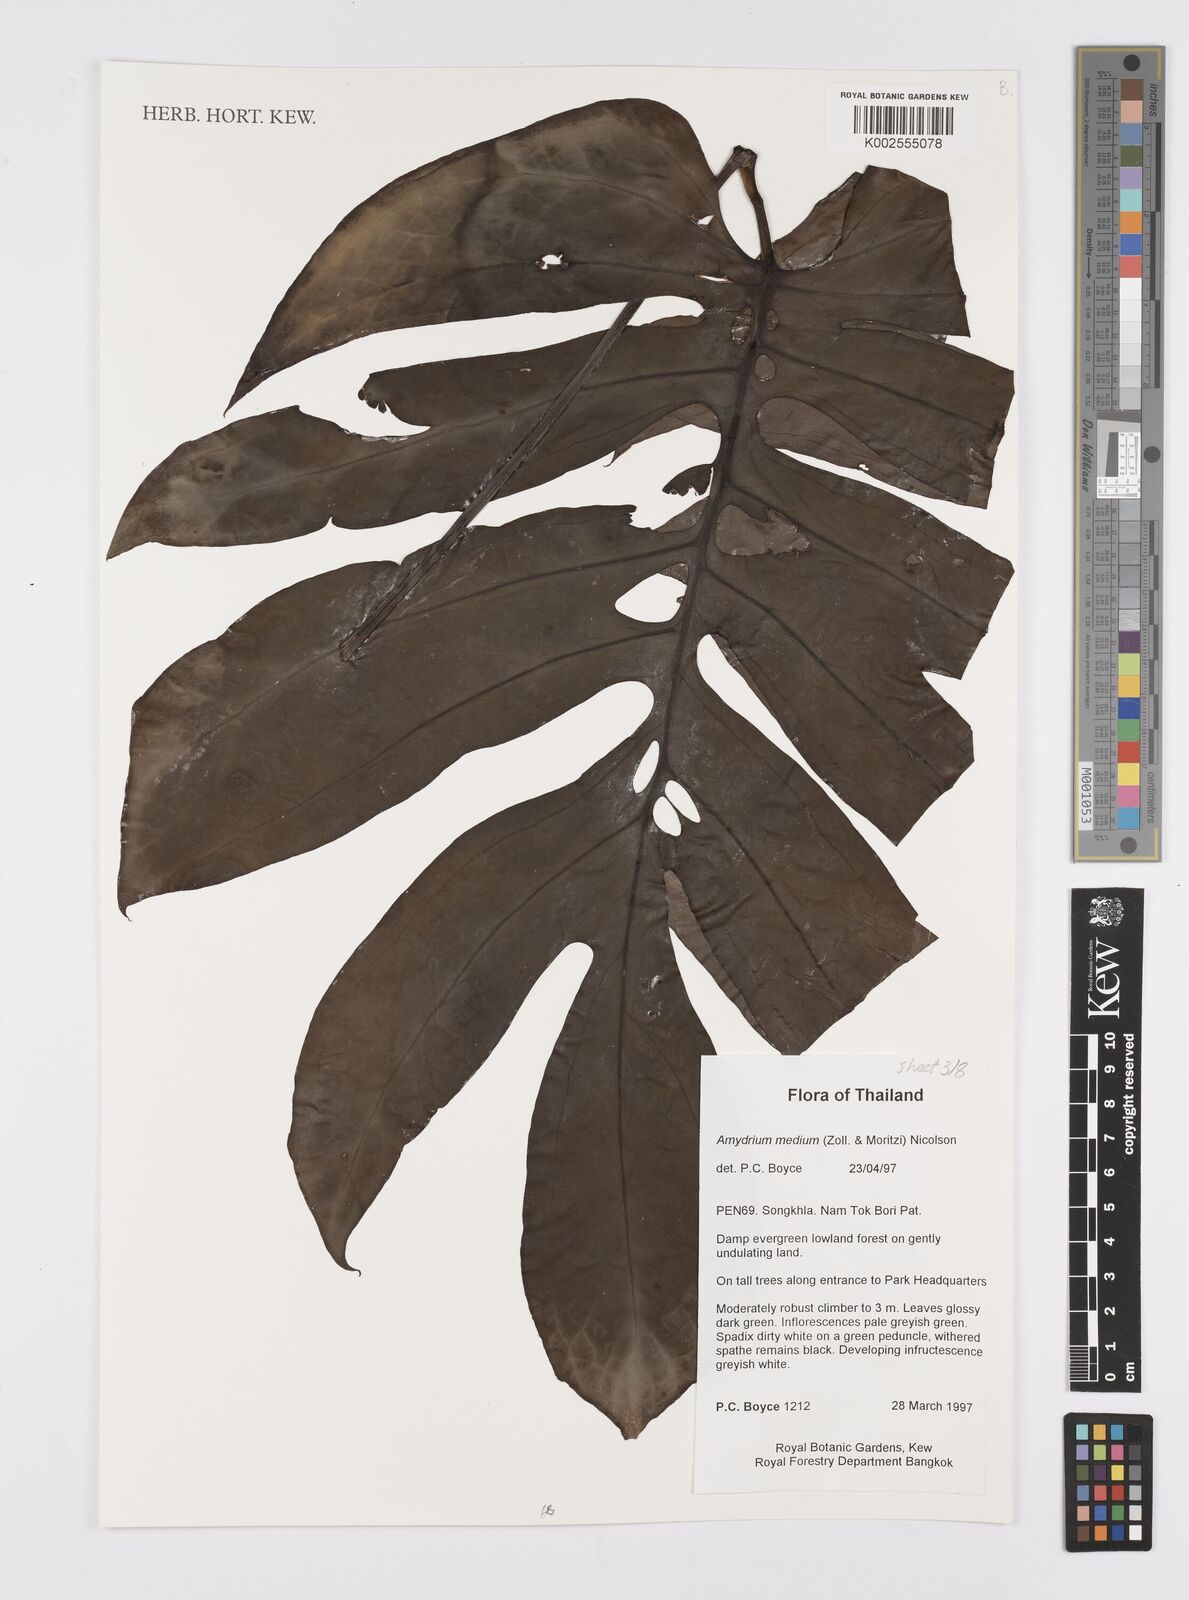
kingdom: Plantae
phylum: Tracheophyta
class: Liliopsida
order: Alismatales
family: Araceae
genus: Amydrium
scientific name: Amydrium medium
